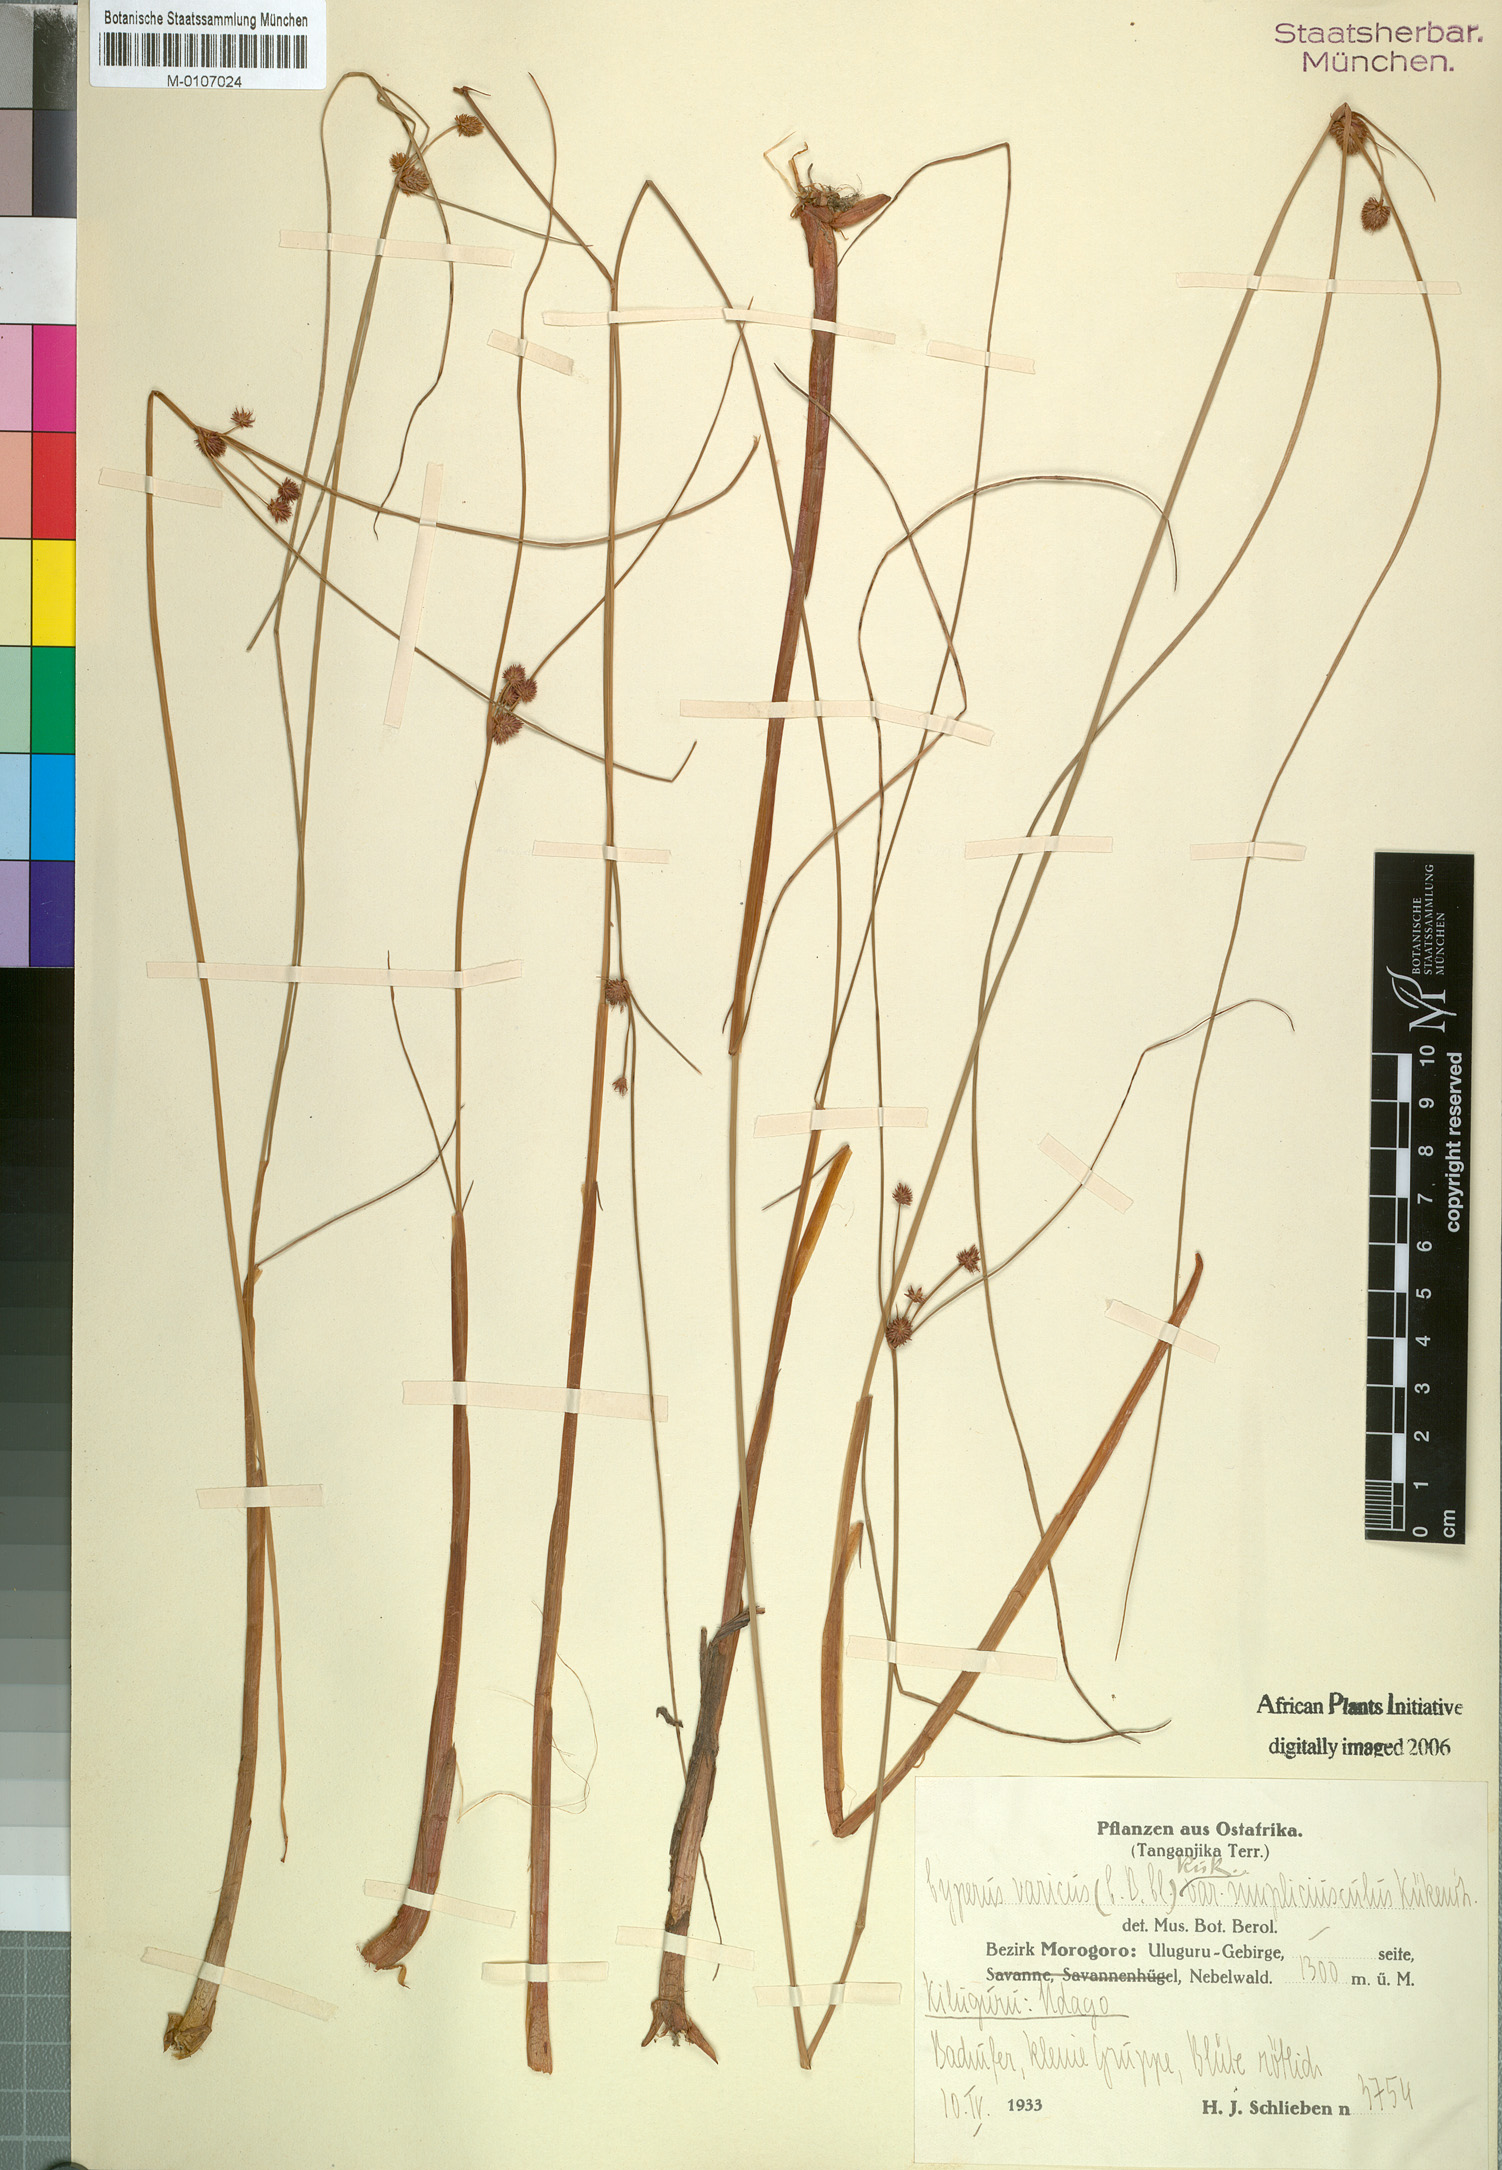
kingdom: Plantae
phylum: Tracheophyta
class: Liliopsida
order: Poales
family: Cyperaceae
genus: Cyperus
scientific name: Cyperus varicus
